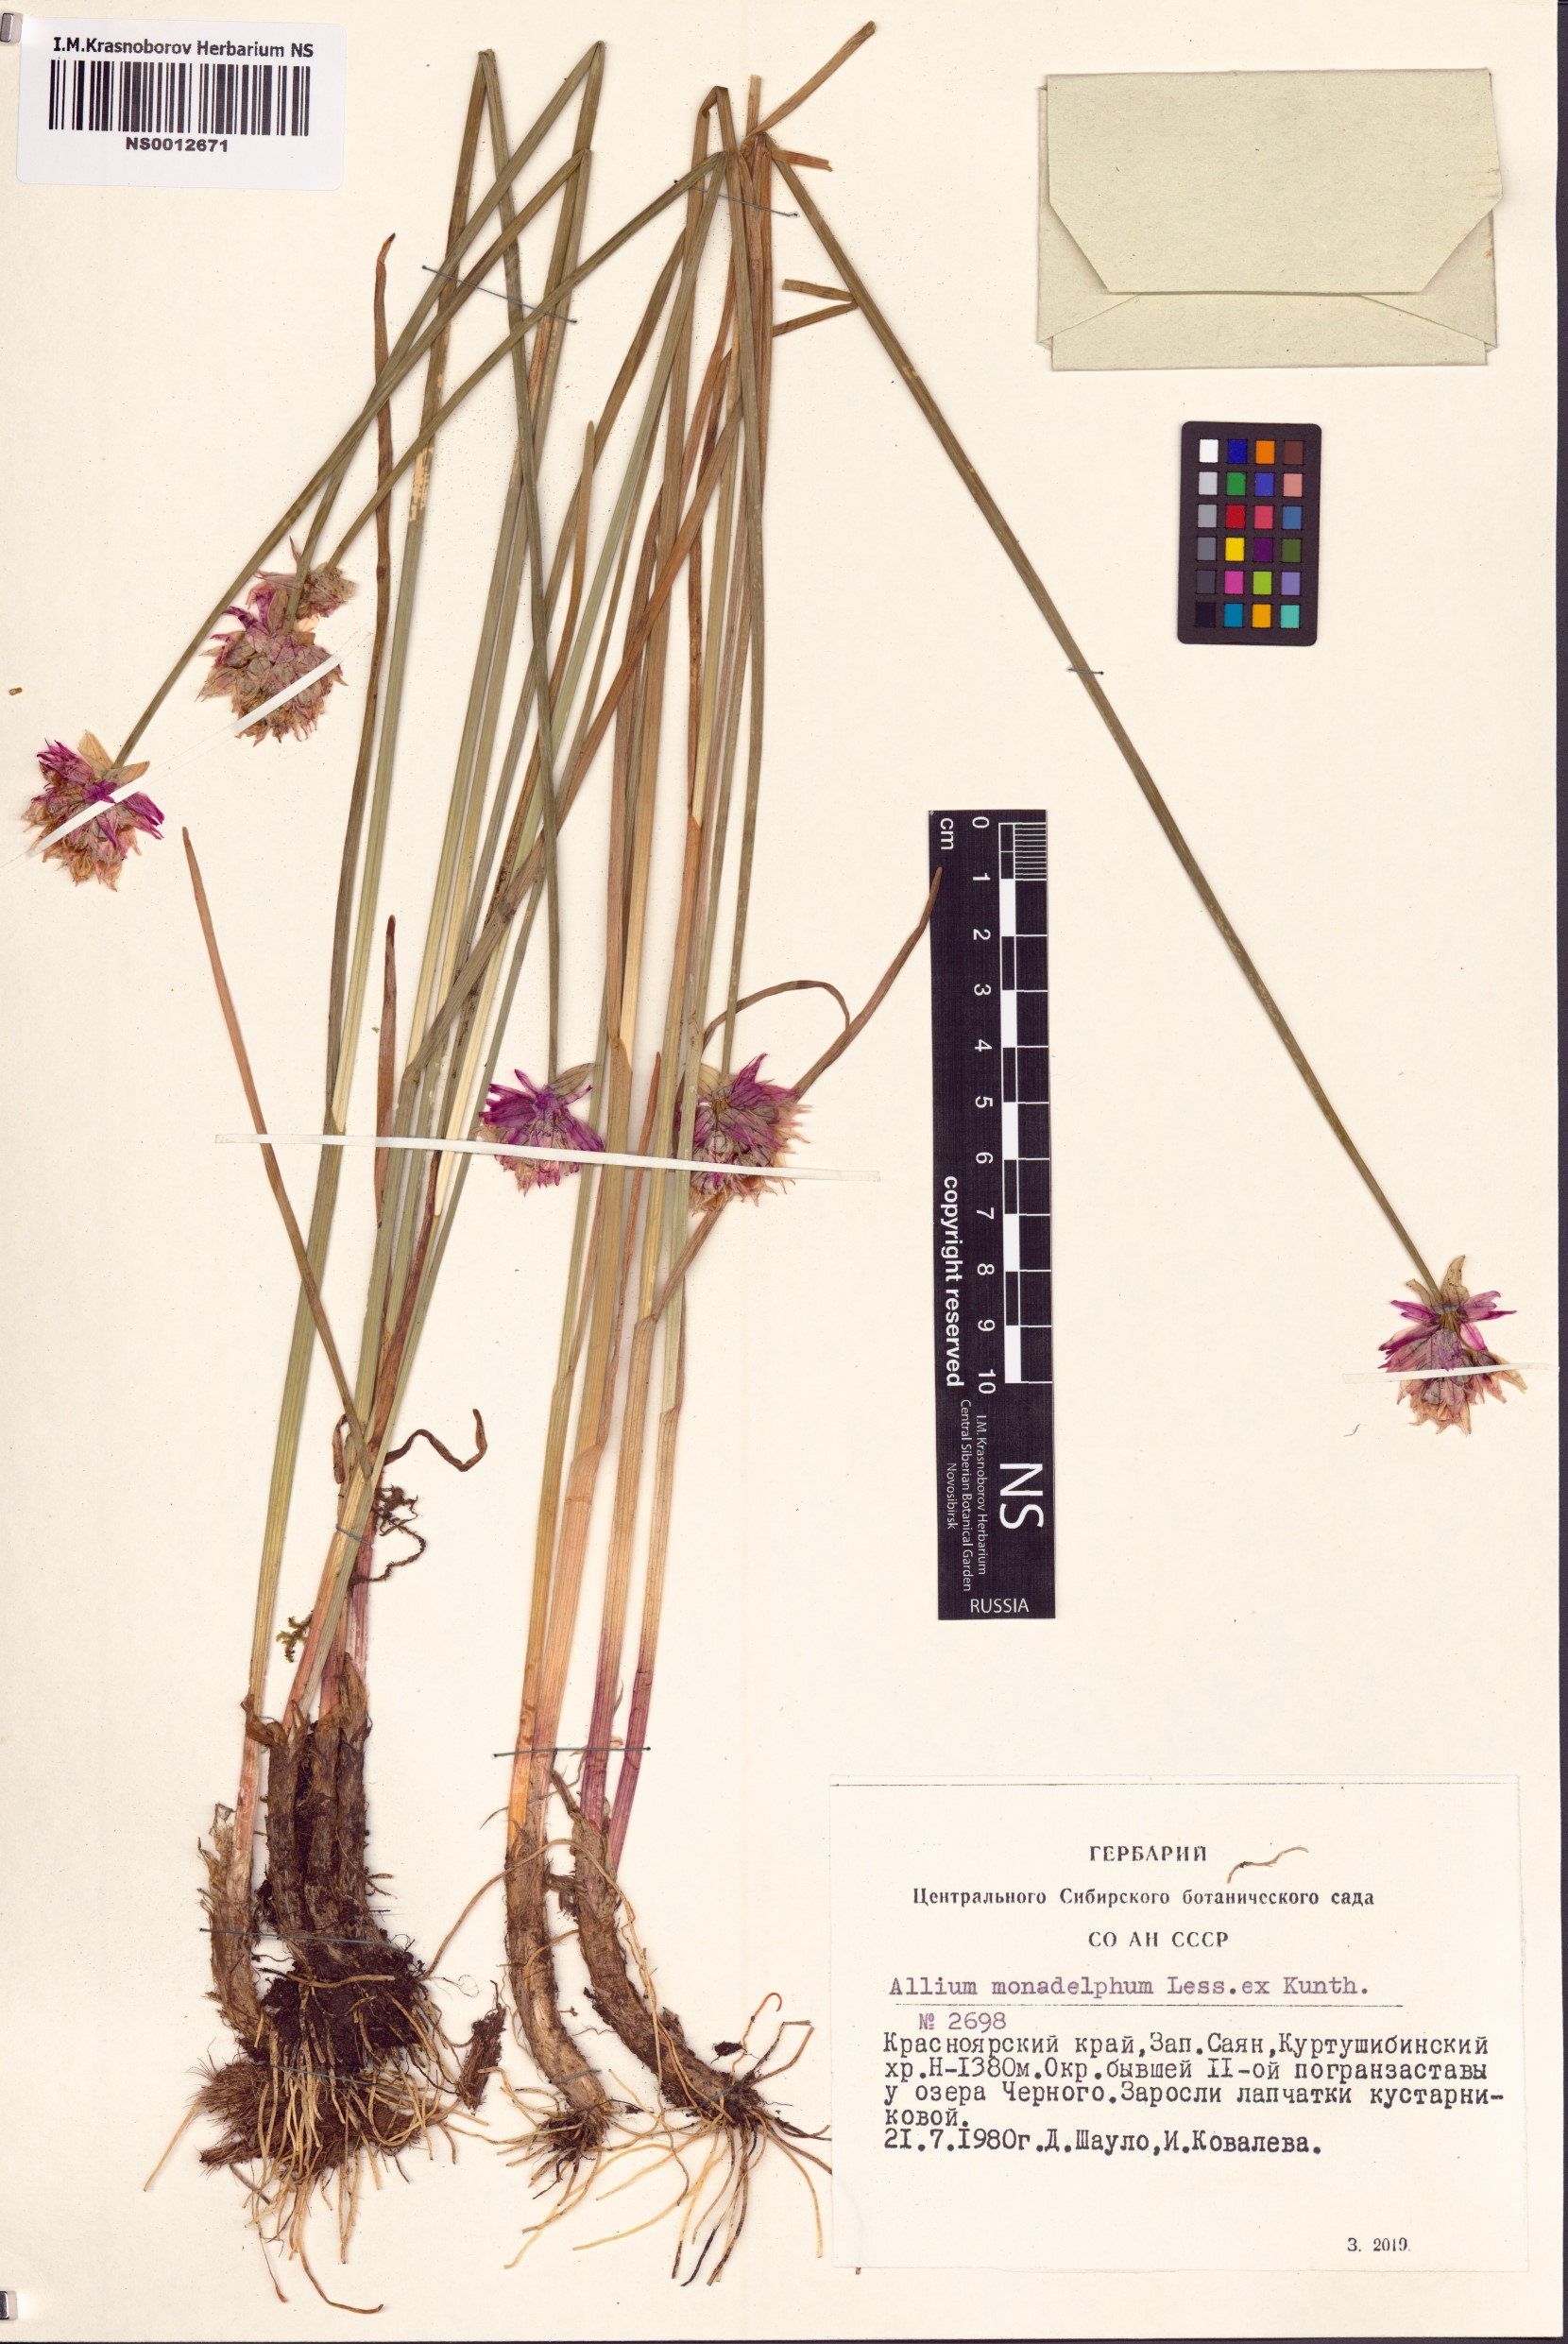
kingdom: Plantae
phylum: Tracheophyta
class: Liliopsida
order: Asparagales
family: Amaryllidaceae
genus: Allium
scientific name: Allium atrosanguineum
